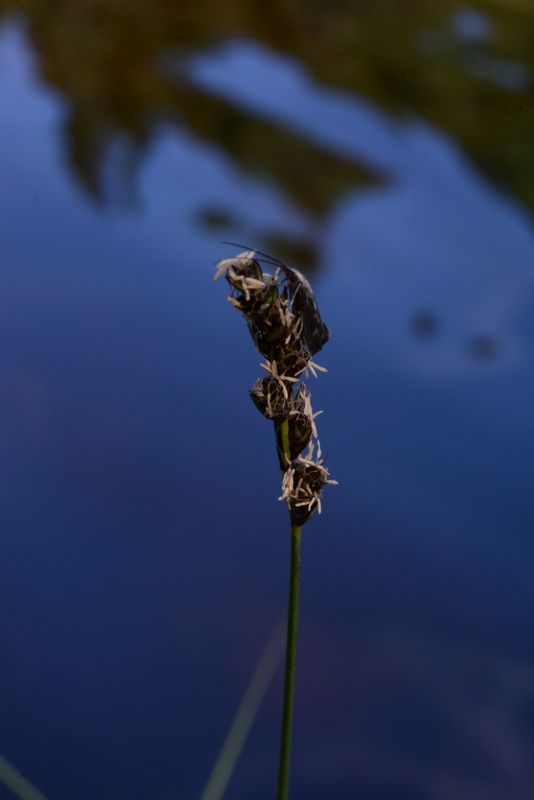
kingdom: Plantae
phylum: Tracheophyta
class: Liliopsida
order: Poales
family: Cyperaceae
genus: Carex
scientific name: Carex diandra
